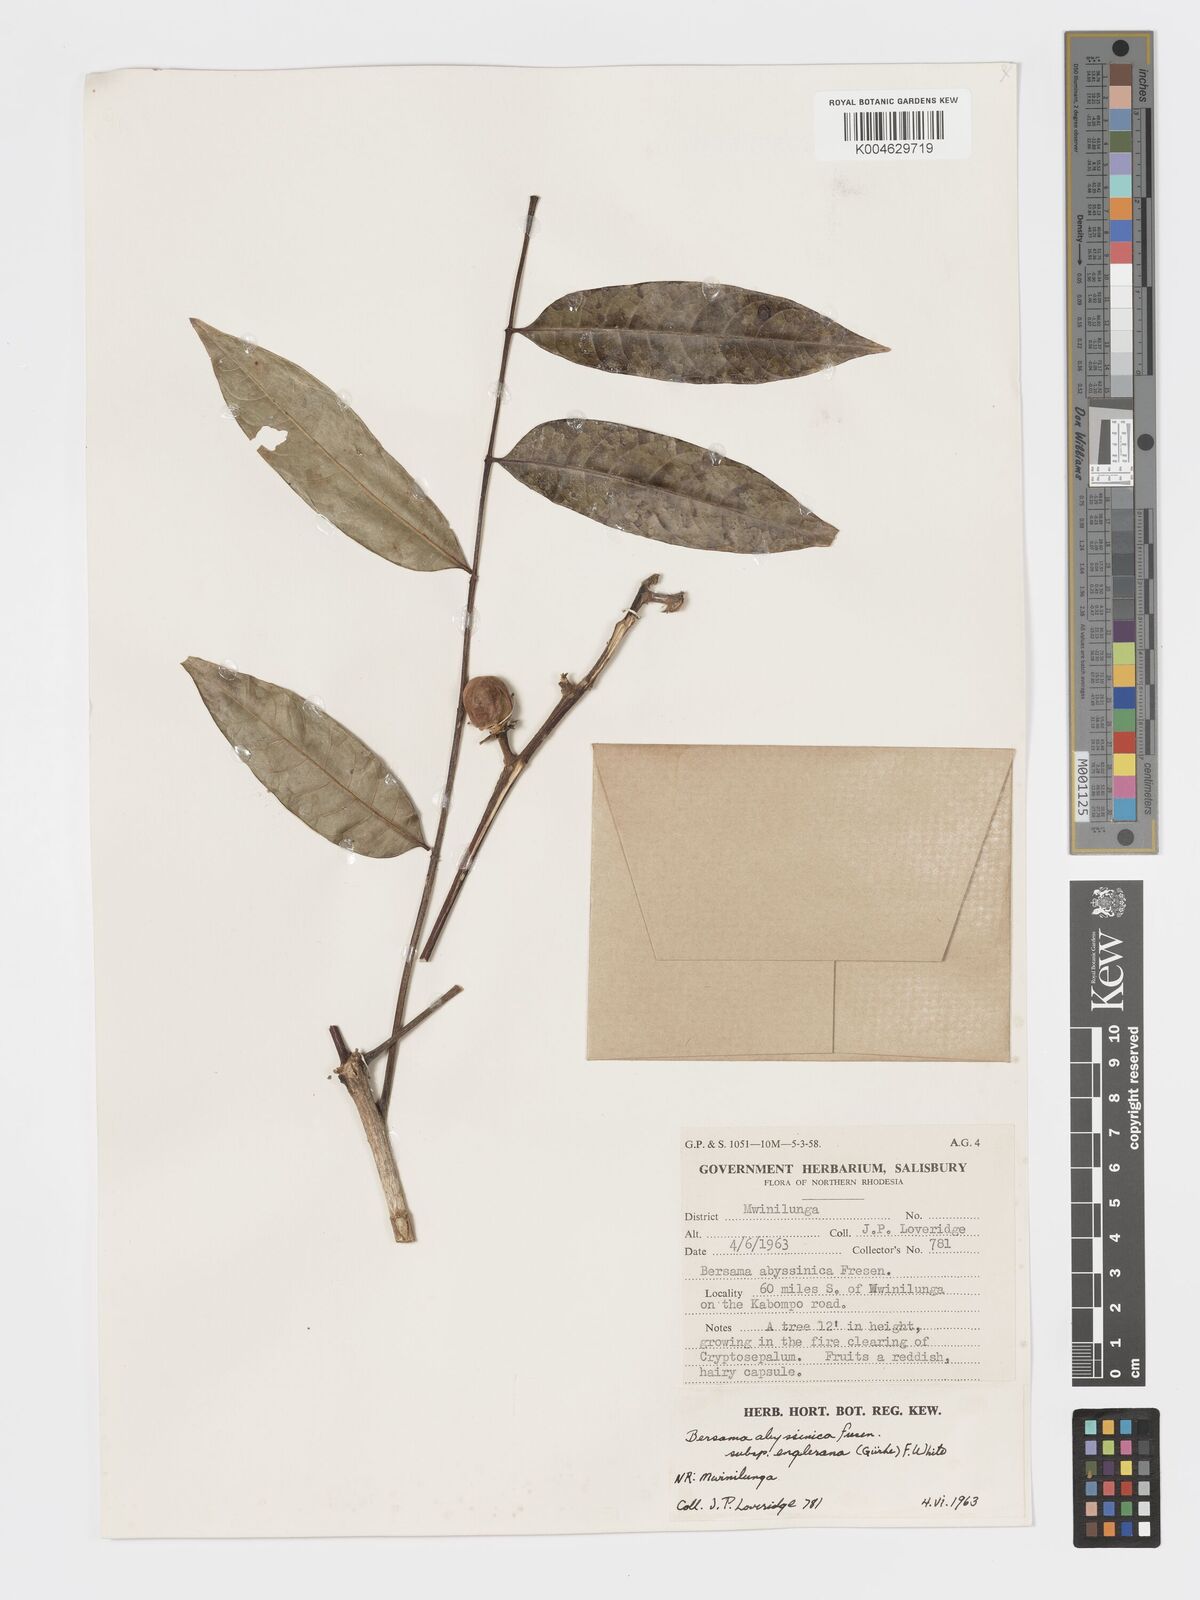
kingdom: Plantae
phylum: Tracheophyta
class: Magnoliopsida
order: Geraniales
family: Melianthaceae
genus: Bersama
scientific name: Bersama abyssinica
